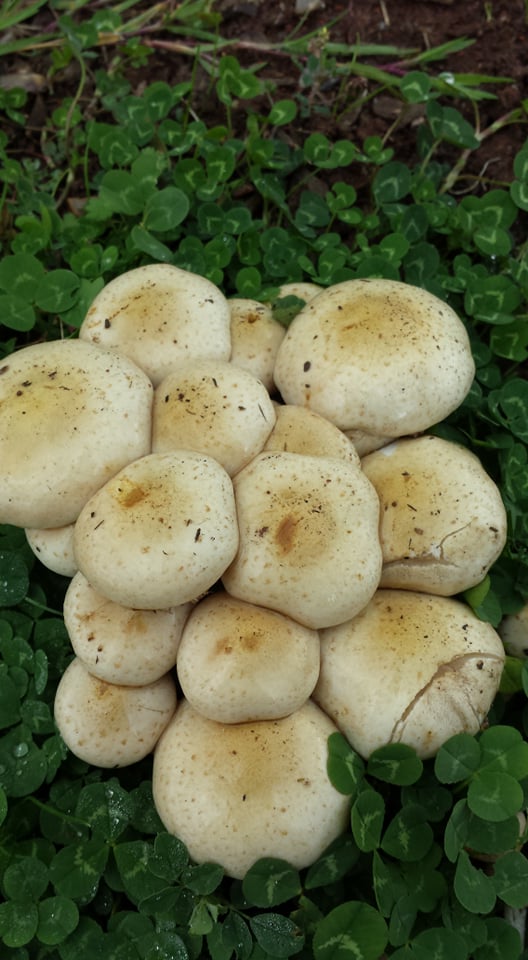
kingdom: Fungi
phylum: Basidiomycota
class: Agaricomycetes
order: Agaricales
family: Strophariaceae
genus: Pholiota
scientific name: Pholiota gummosa
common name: grøngul skælhat
